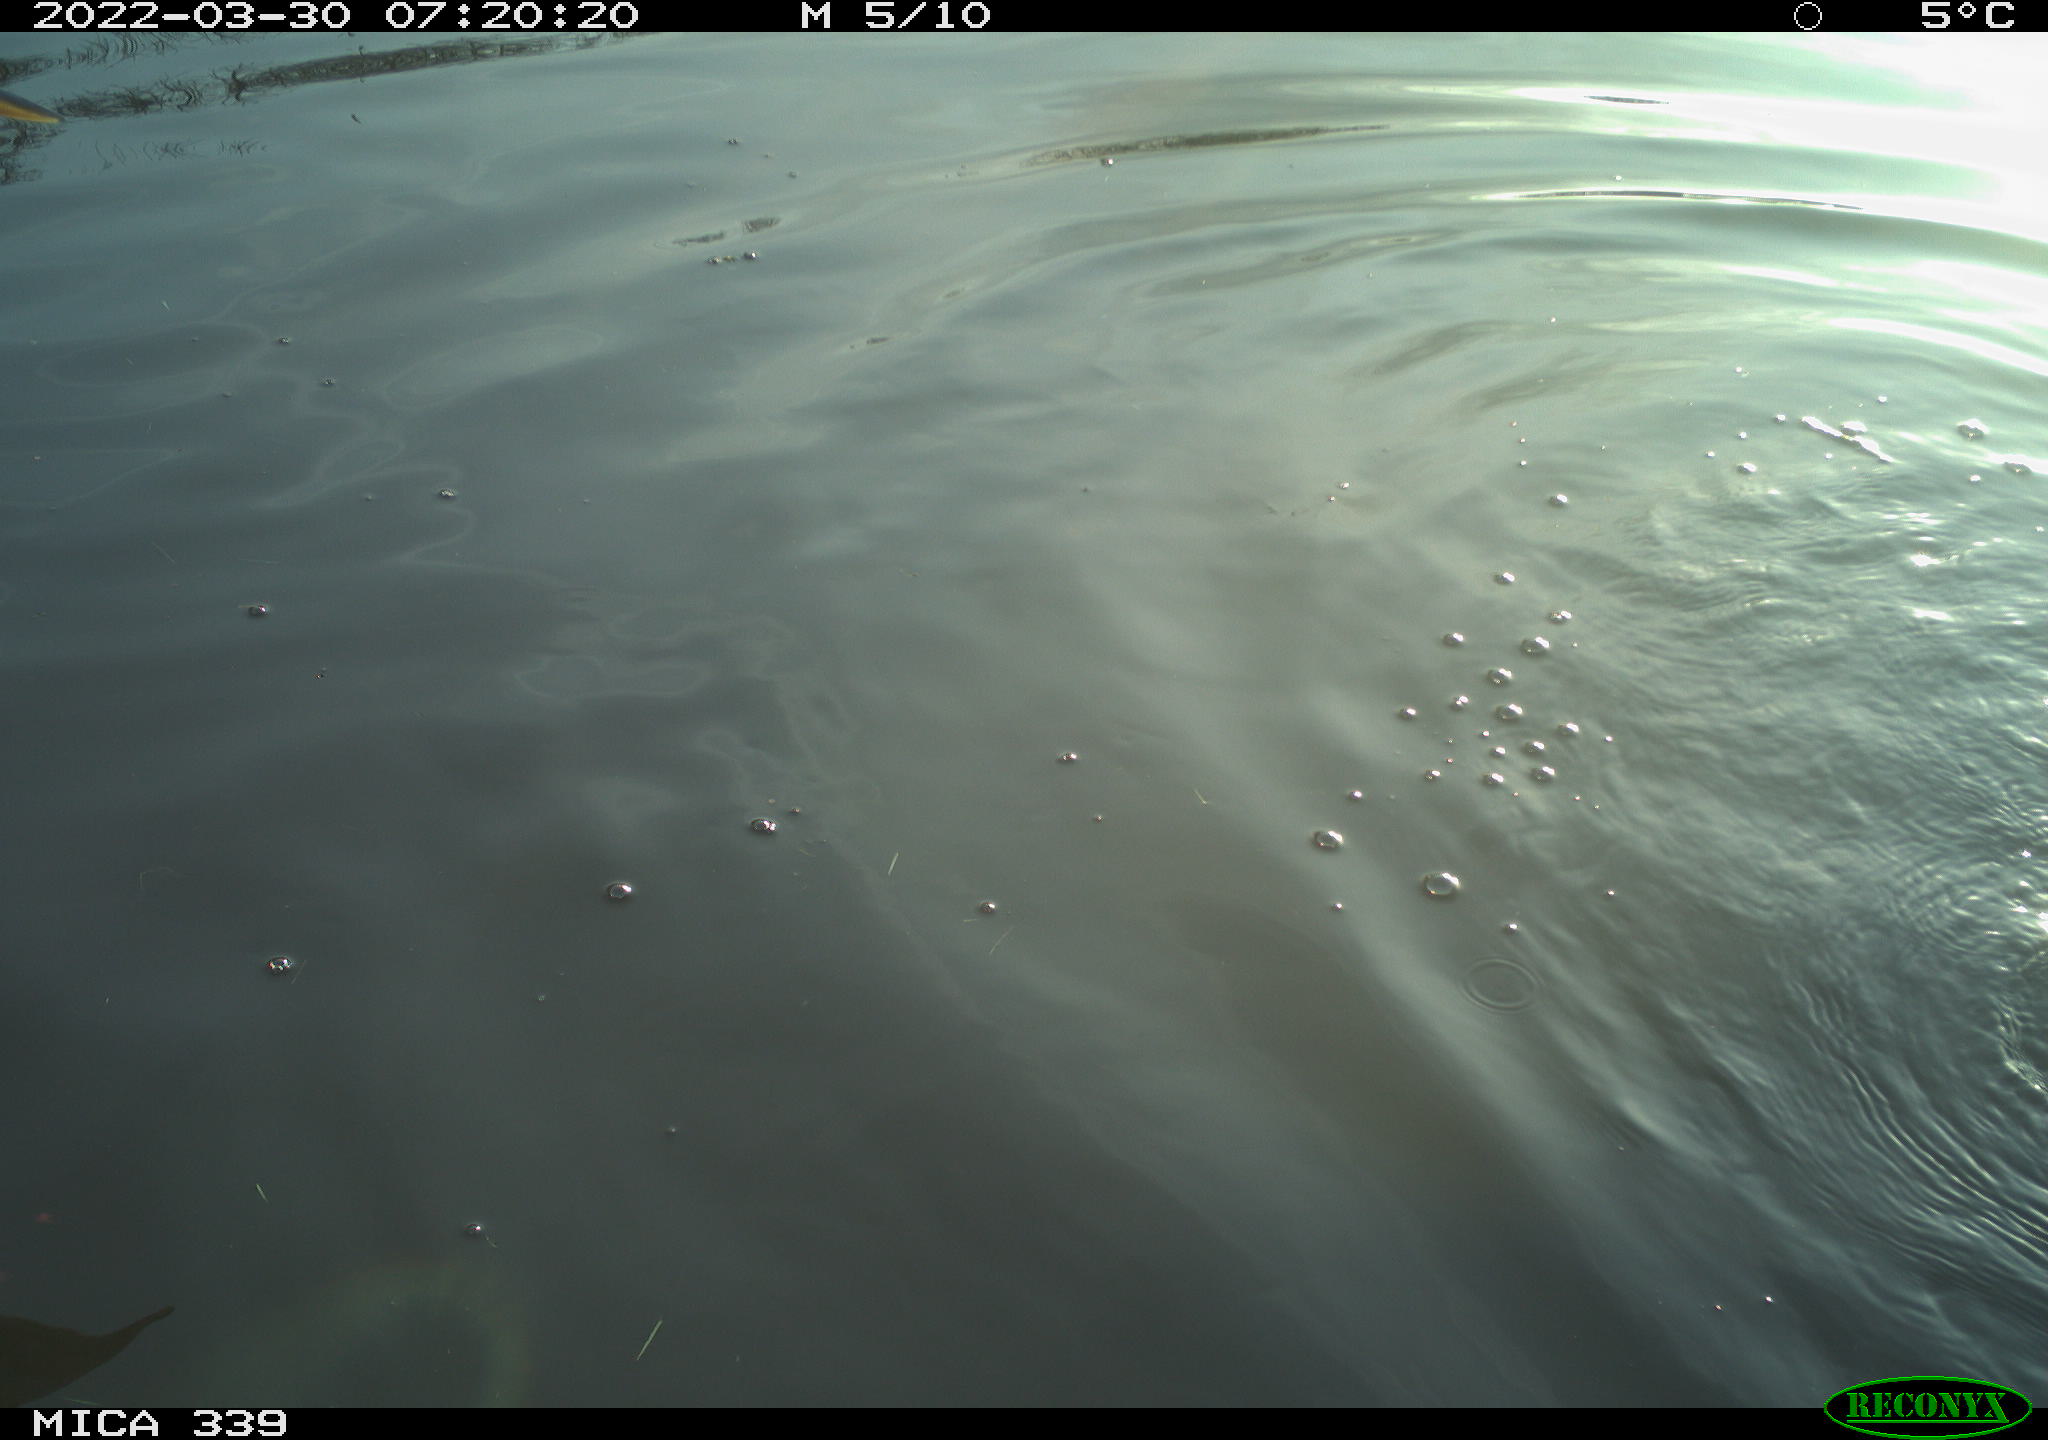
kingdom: Animalia
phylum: Chordata
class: Aves
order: Suliformes
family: Phalacrocoracidae
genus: Phalacrocorax
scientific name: Phalacrocorax carbo
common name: Great cormorant
